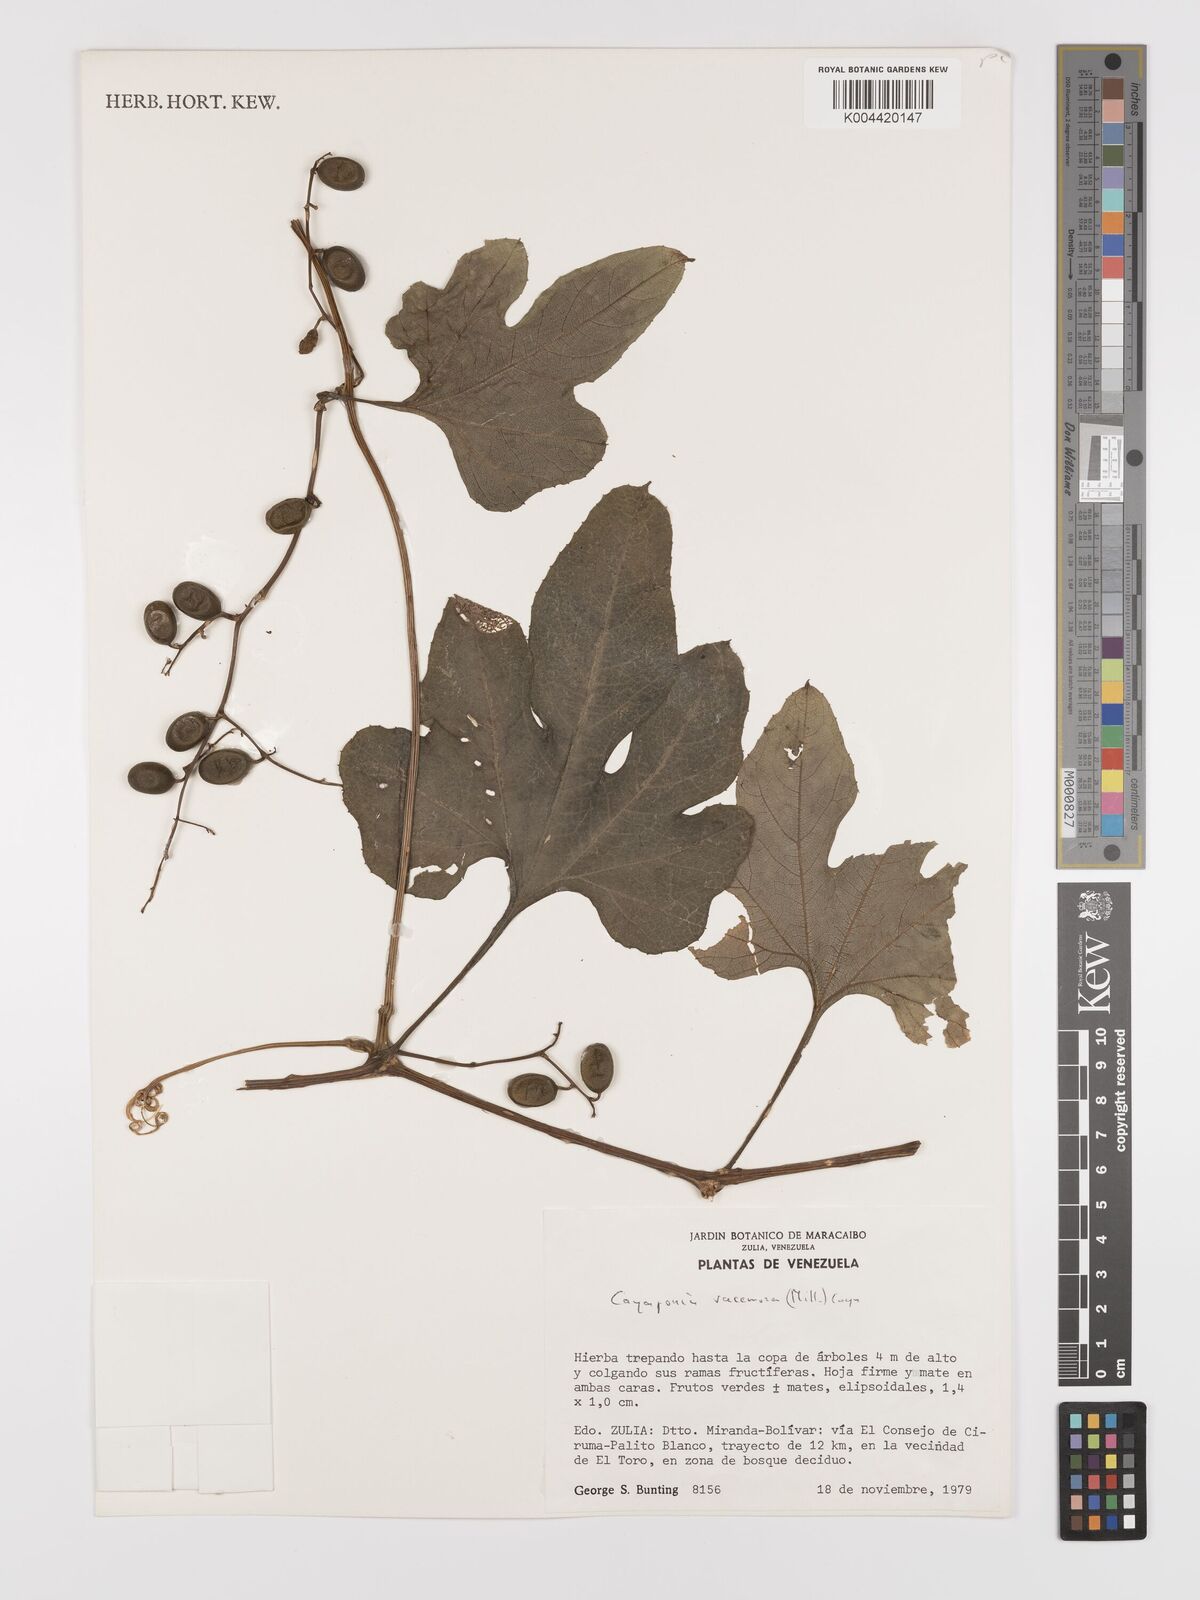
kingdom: Plantae
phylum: Tracheophyta
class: Magnoliopsida
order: Cucurbitales
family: Cucurbitaceae
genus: Cayaponia
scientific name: Cayaponia racemosa
